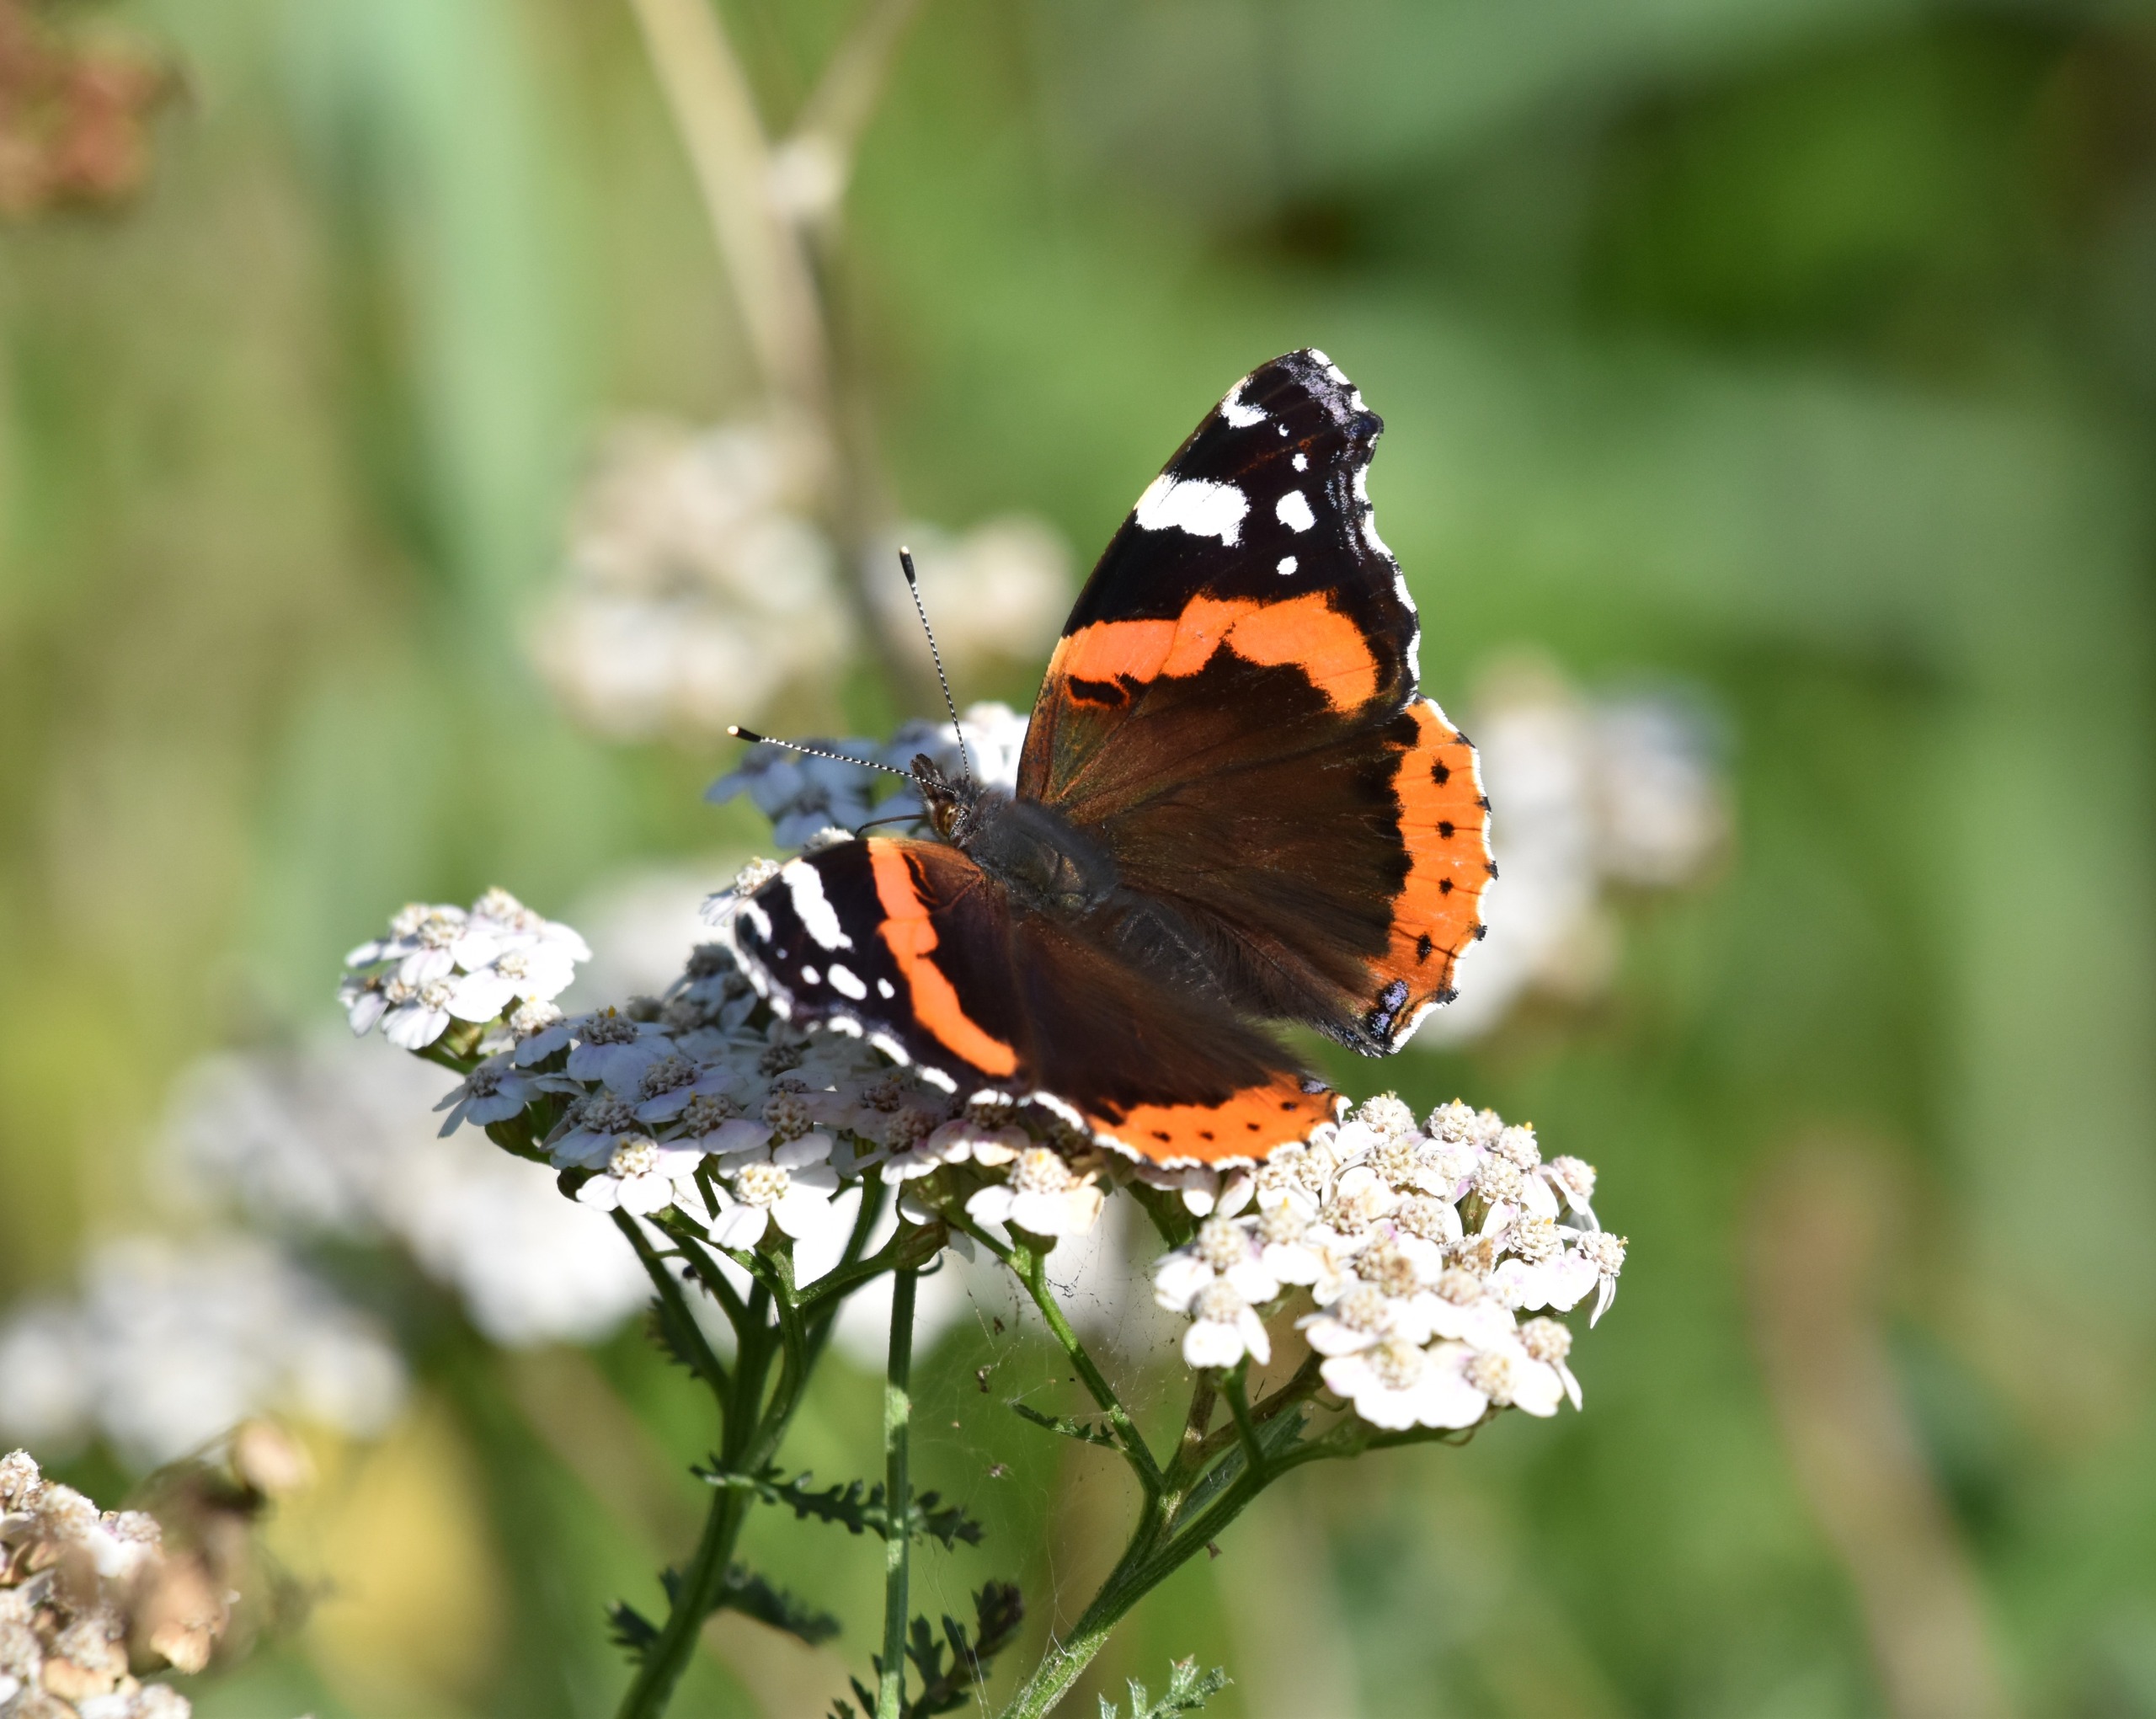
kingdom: Animalia
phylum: Arthropoda
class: Insecta
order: Lepidoptera
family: Nymphalidae
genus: Vanessa
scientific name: Vanessa atalanta
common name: Admiral
